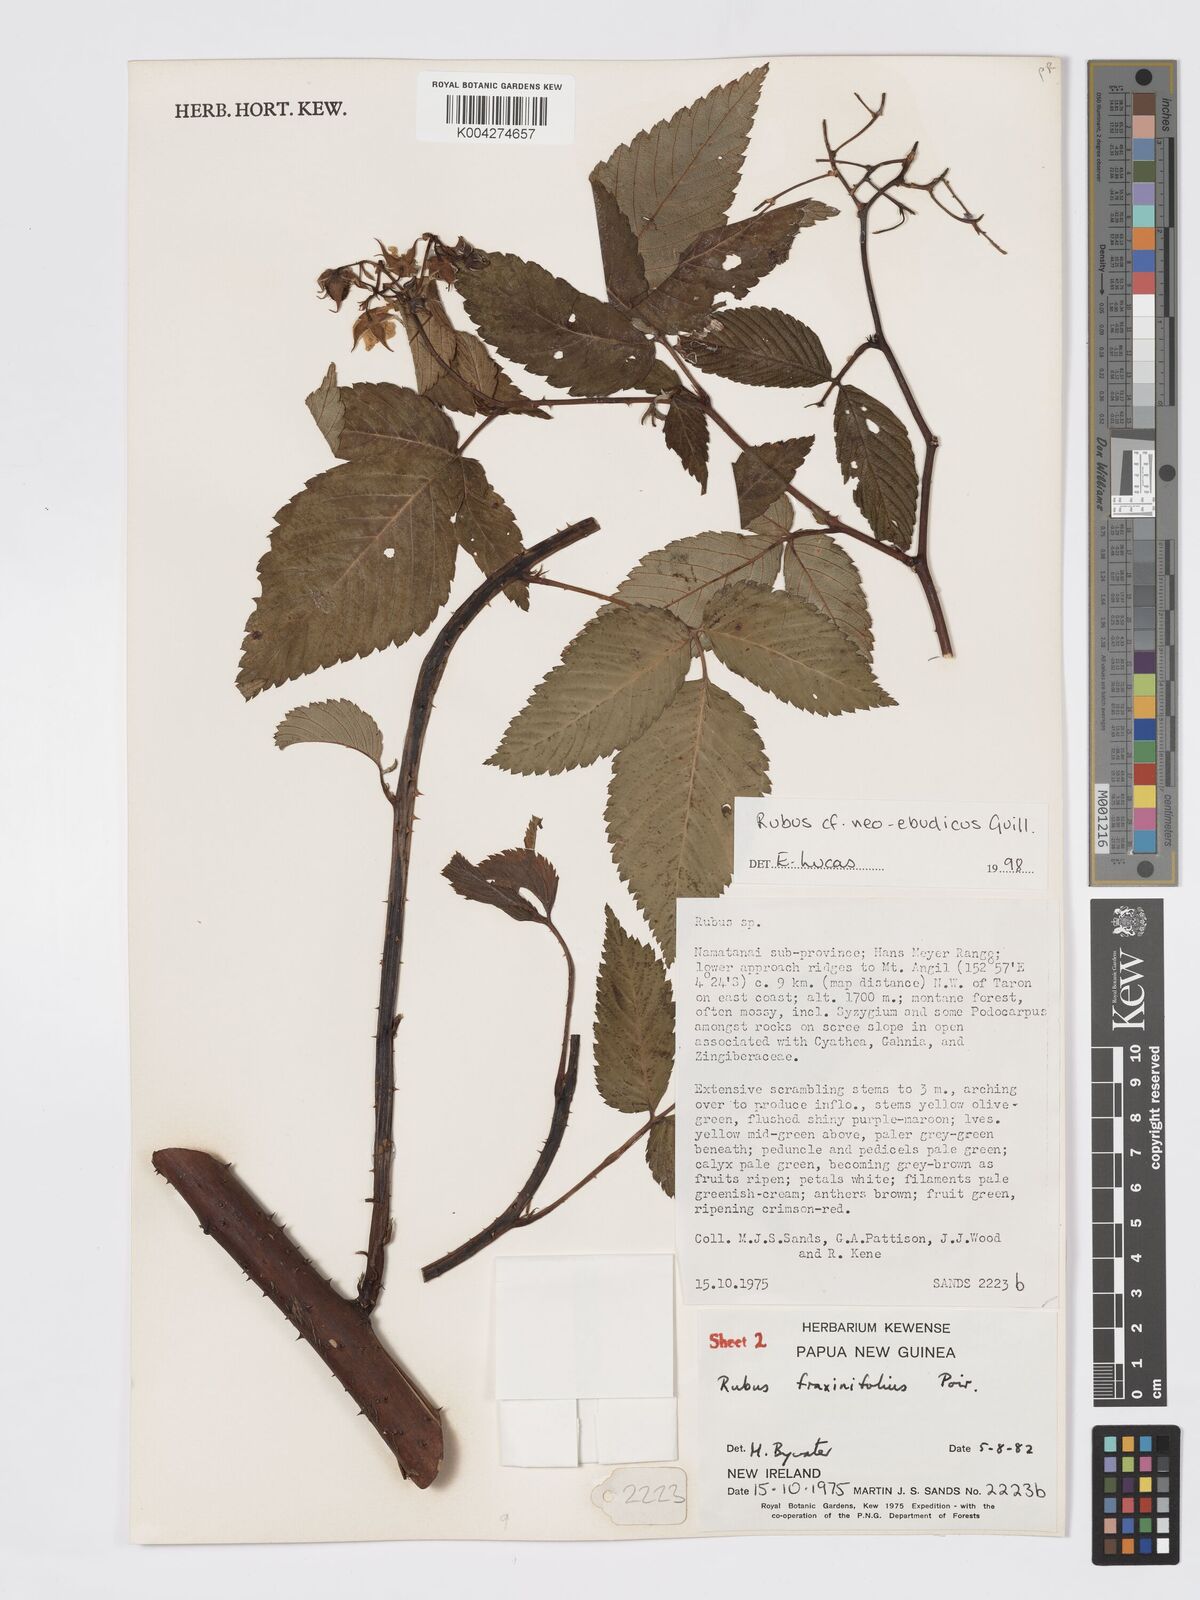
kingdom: Plantae
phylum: Tracheophyta
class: Magnoliopsida
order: Rosales
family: Rosaceae
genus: Rubus
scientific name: Rubus neoebudicus
